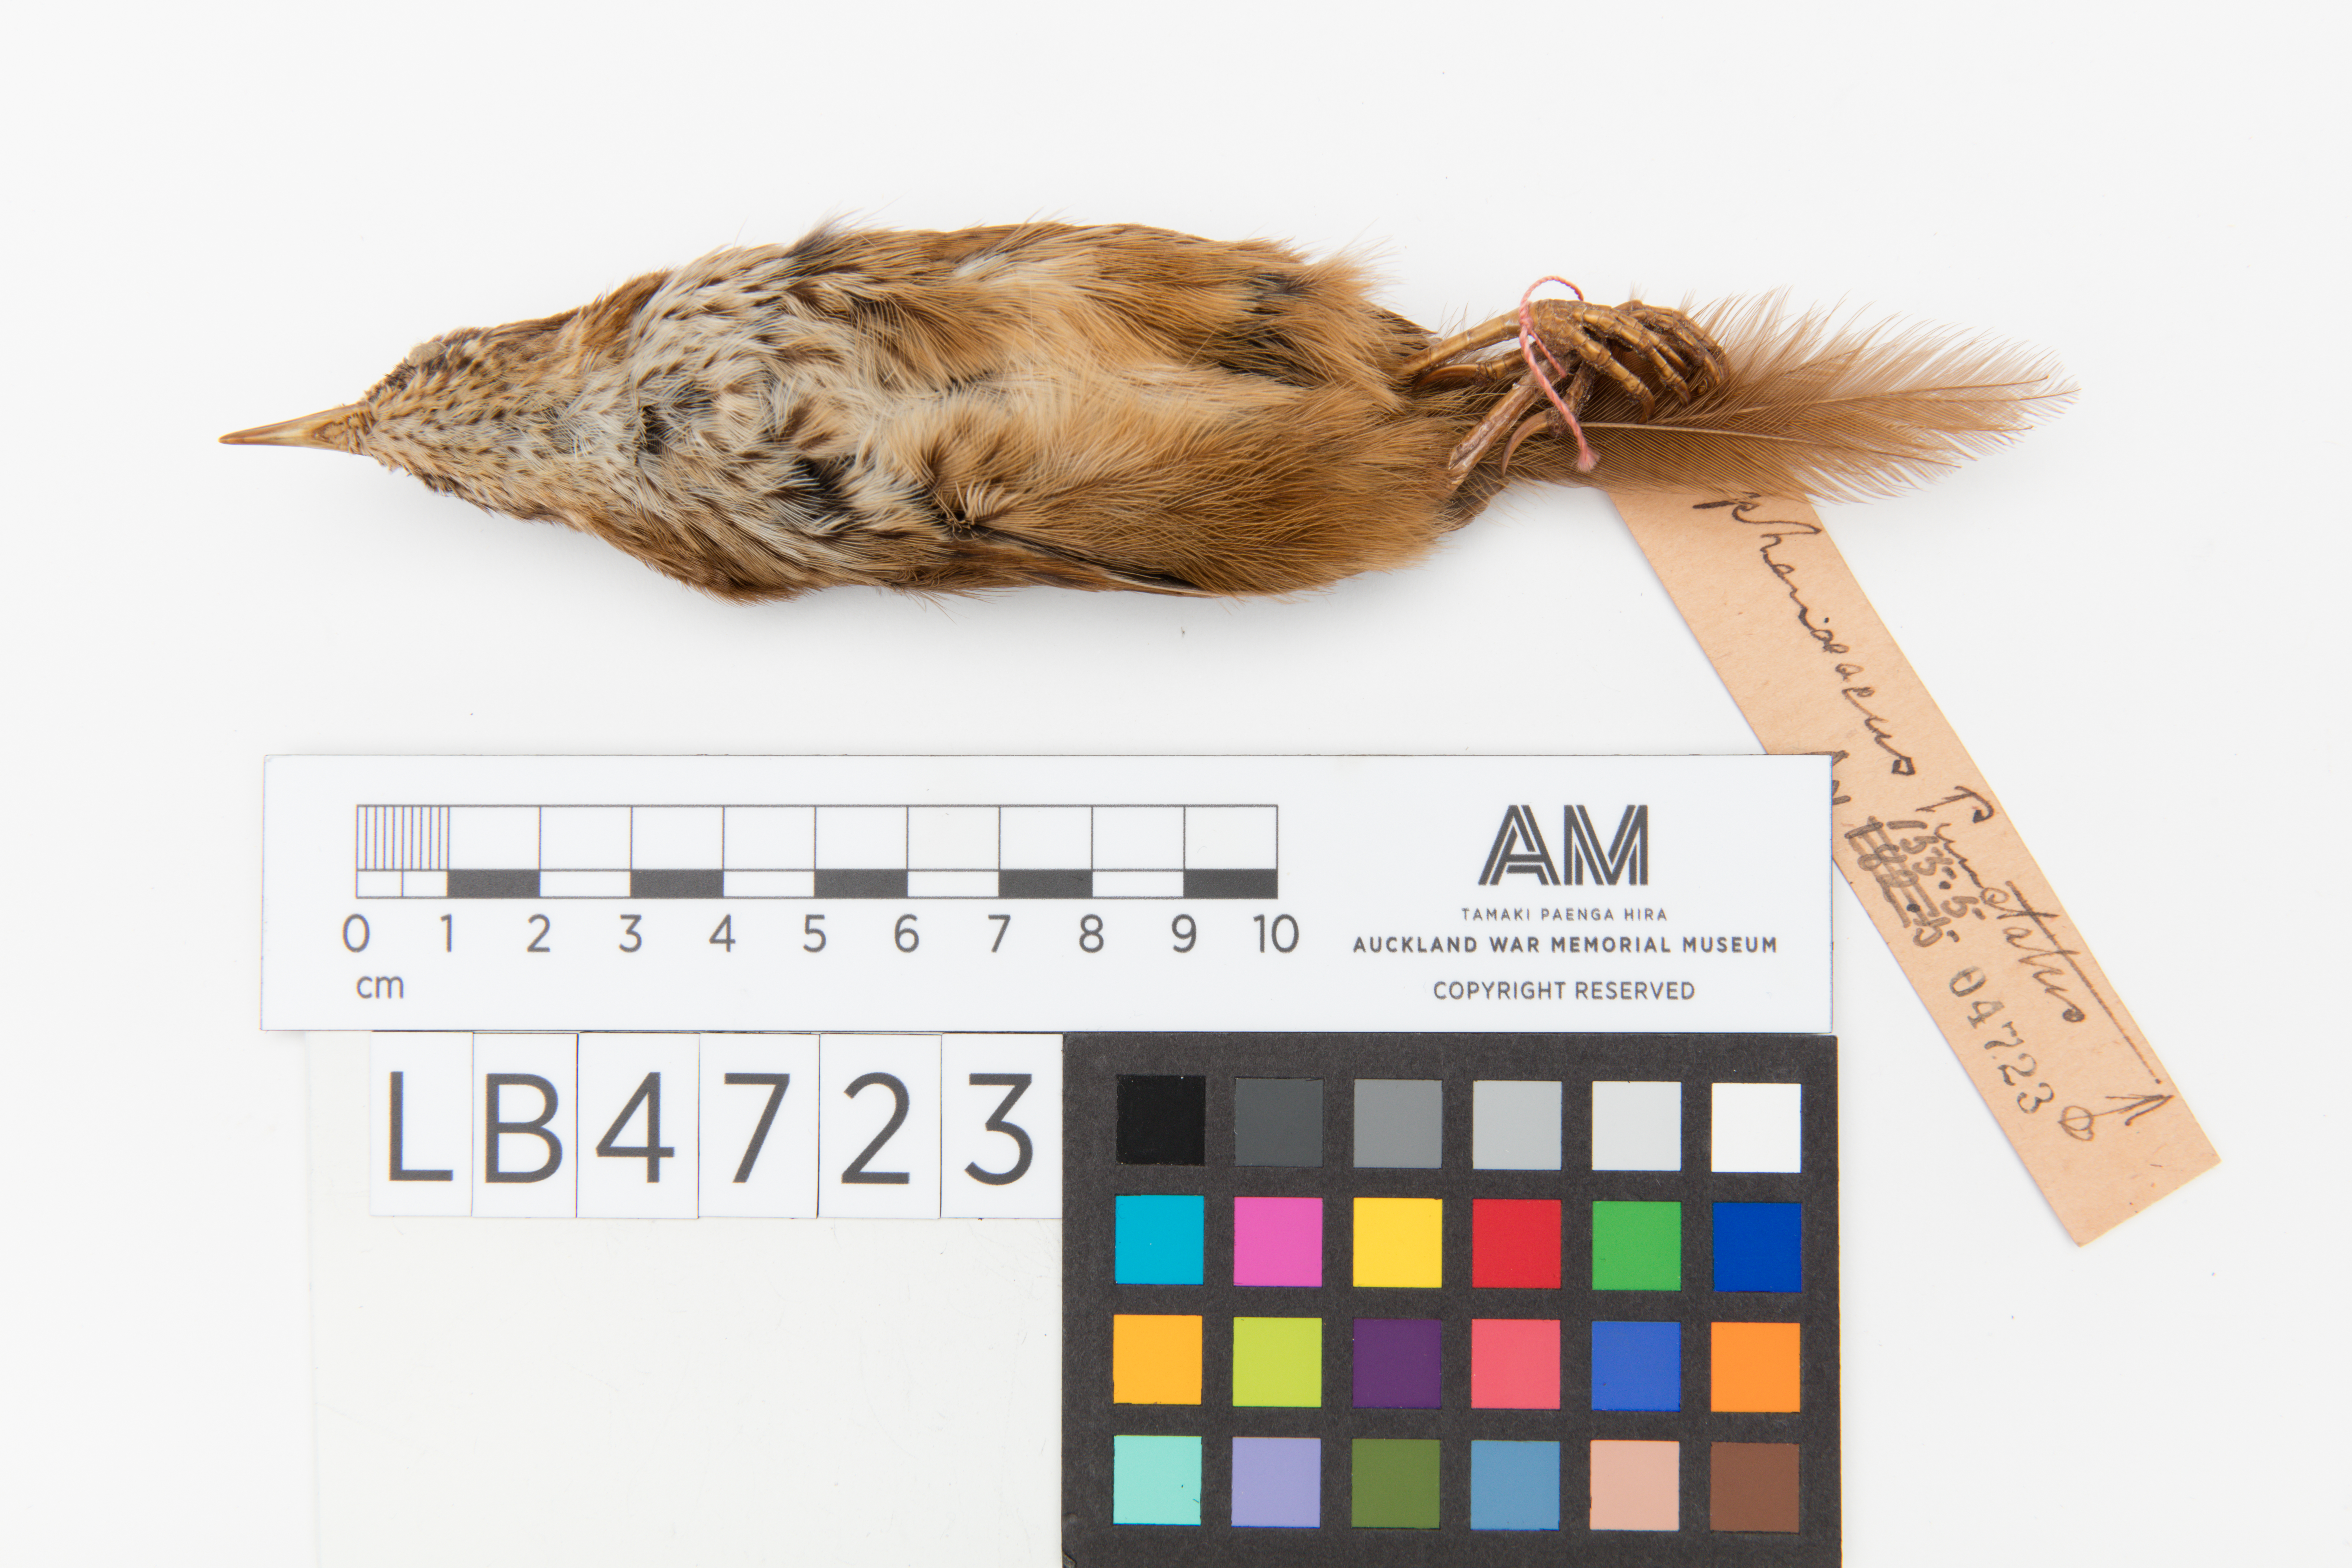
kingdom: Animalia
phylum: Chordata
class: Aves
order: Passeriformes
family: Locustellidae
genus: Megalurus
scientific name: Megalurus punctatus
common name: New zealand fernbird
